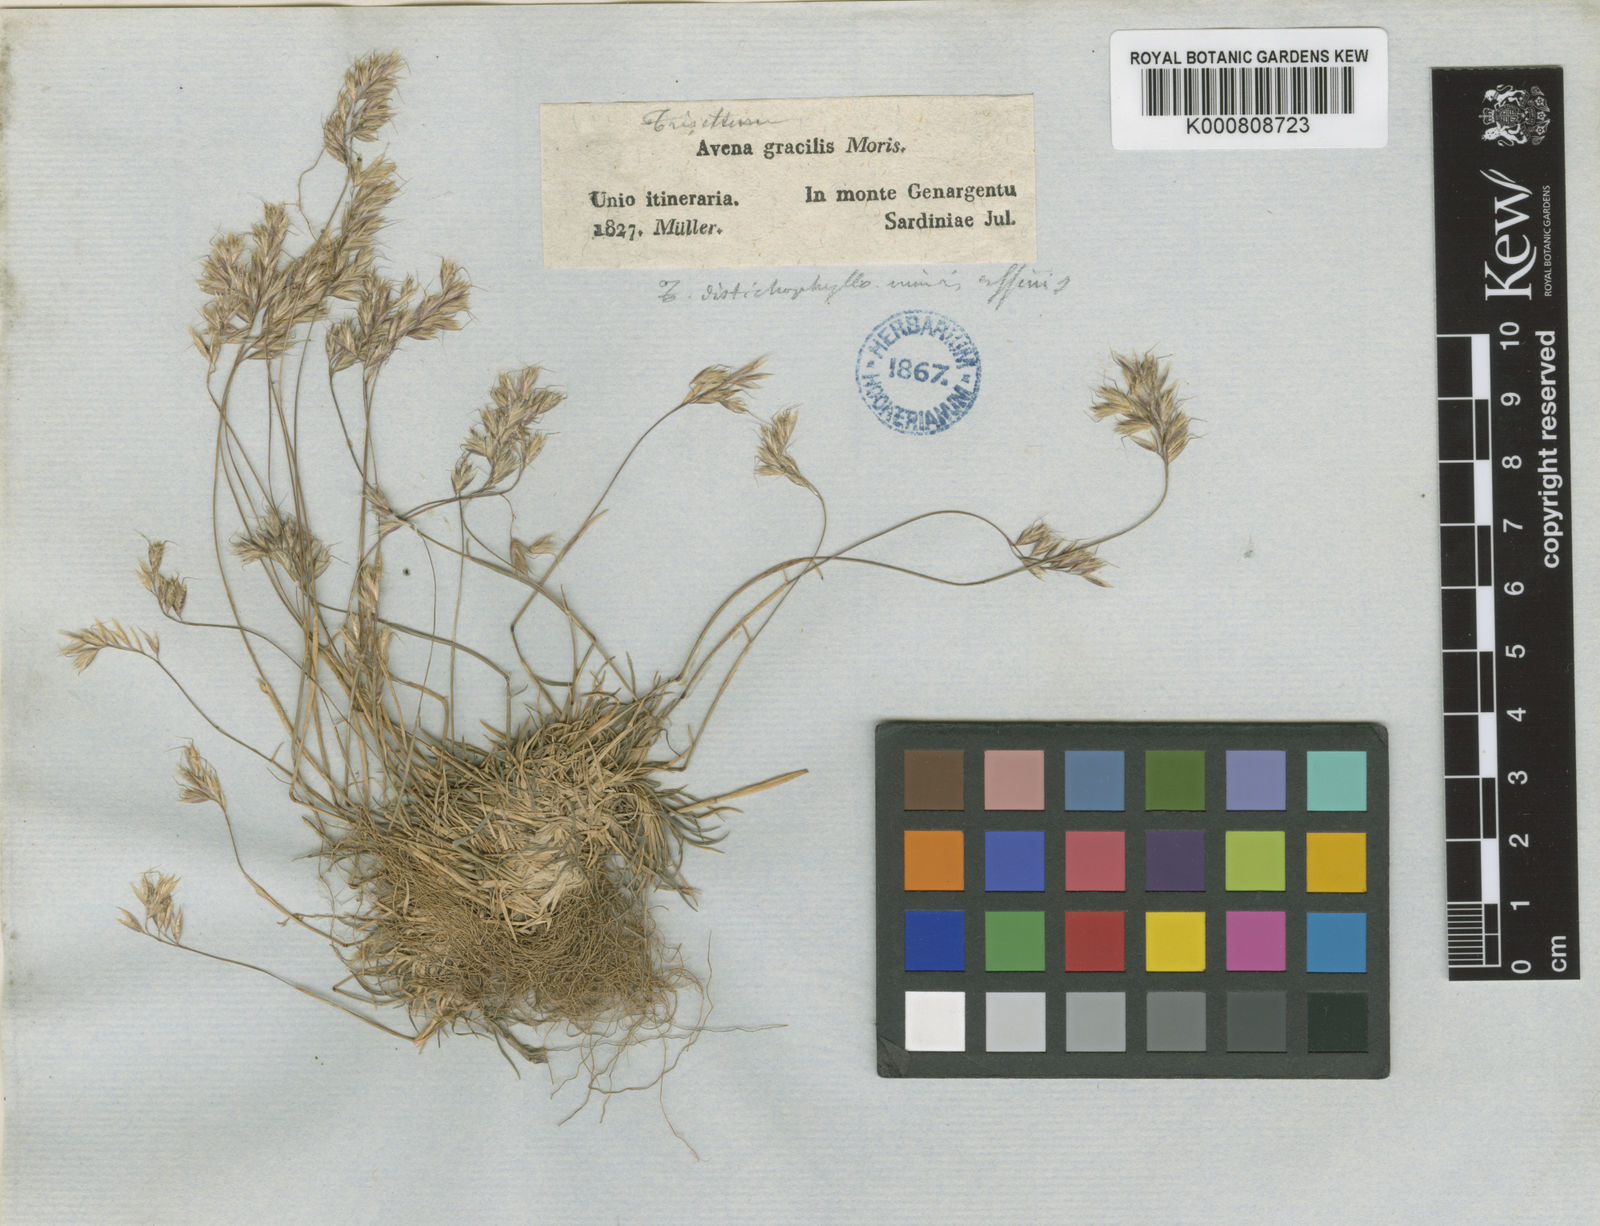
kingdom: Plantae
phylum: Tracheophyta
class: Liliopsida
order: Poales
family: Poaceae
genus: Acrospelion
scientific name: Acrospelion glaciale
